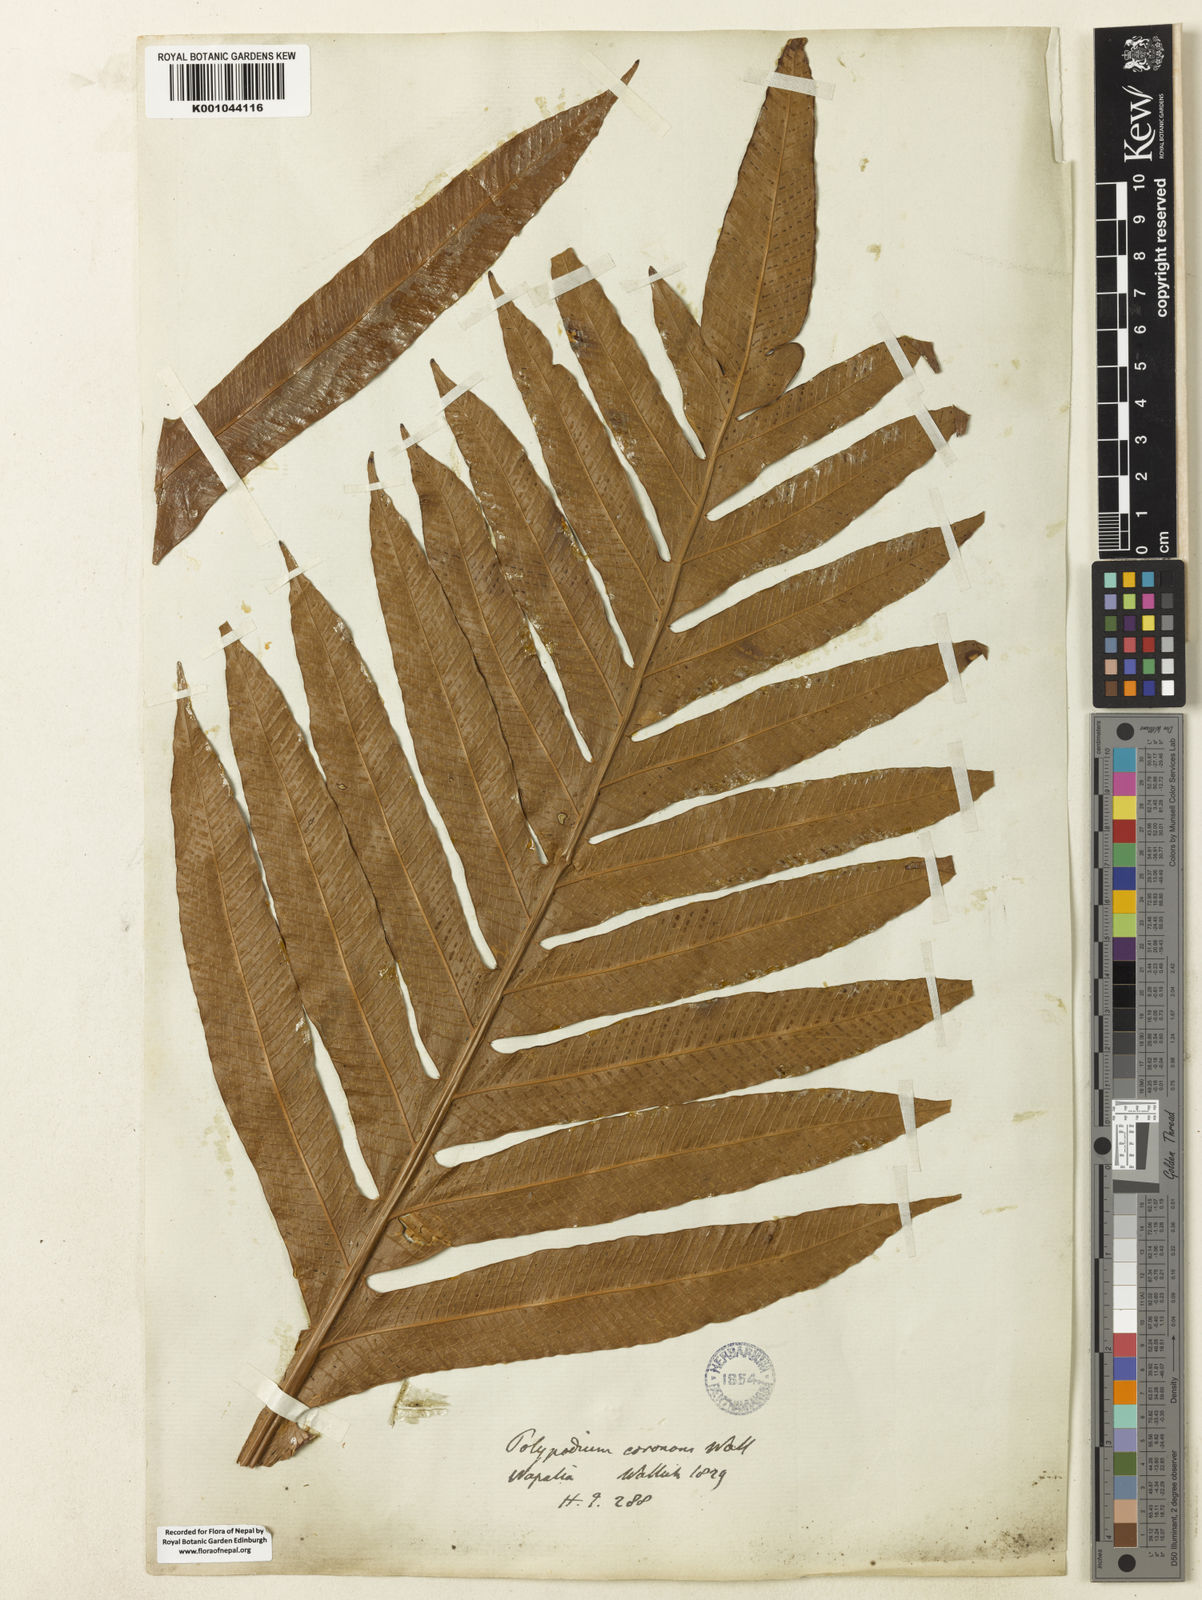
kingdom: Plantae
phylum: Tracheophyta
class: Polypodiopsida
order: Polypodiales
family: Polypodiaceae
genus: Drynaria
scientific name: Drynaria coronans
